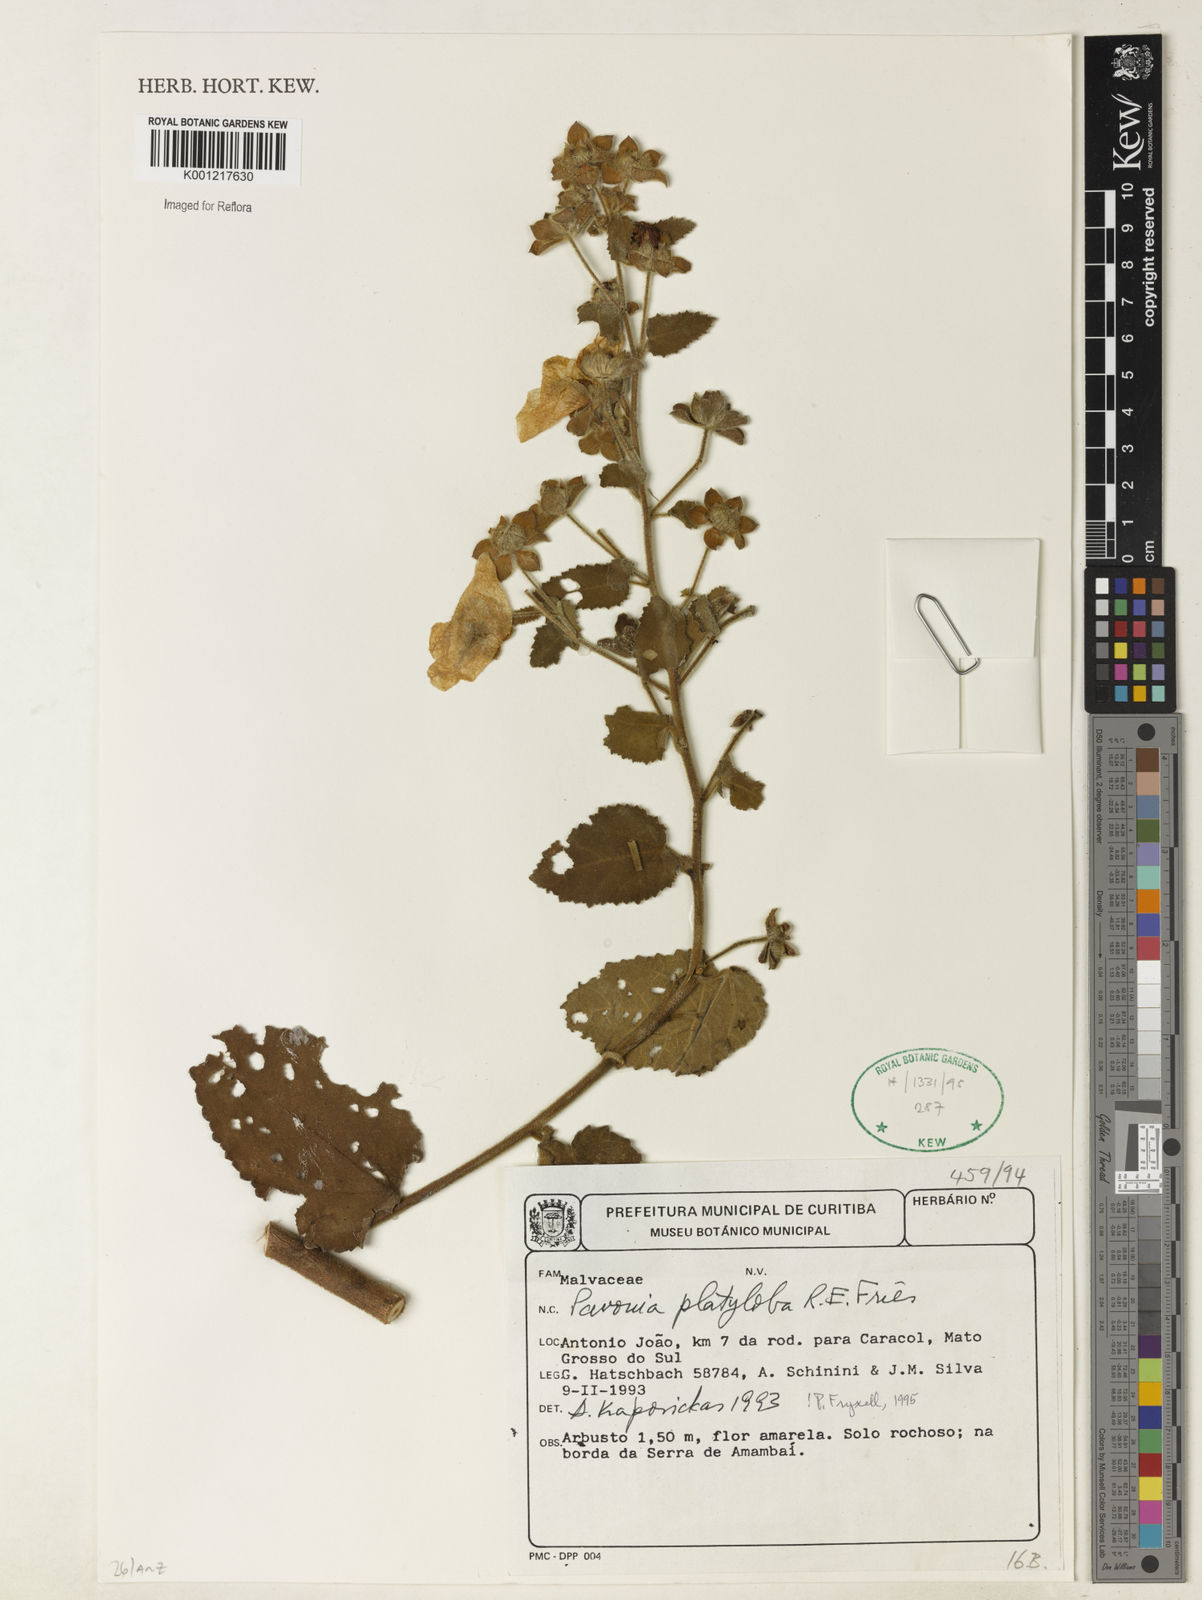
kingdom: Plantae
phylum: Tracheophyta
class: Magnoliopsida
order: Malvales
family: Malvaceae
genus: Pavonia
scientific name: Pavonia platyloba
